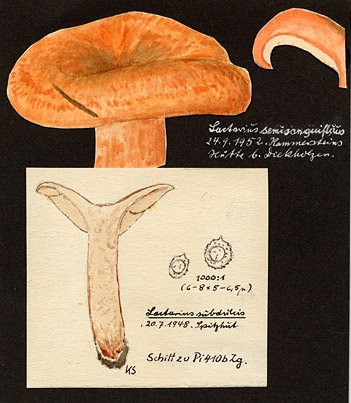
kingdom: Fungi
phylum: Basidiomycota
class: Agaricomycetes
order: Russulales
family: Russulaceae
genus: Lactarius
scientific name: Lactarius
